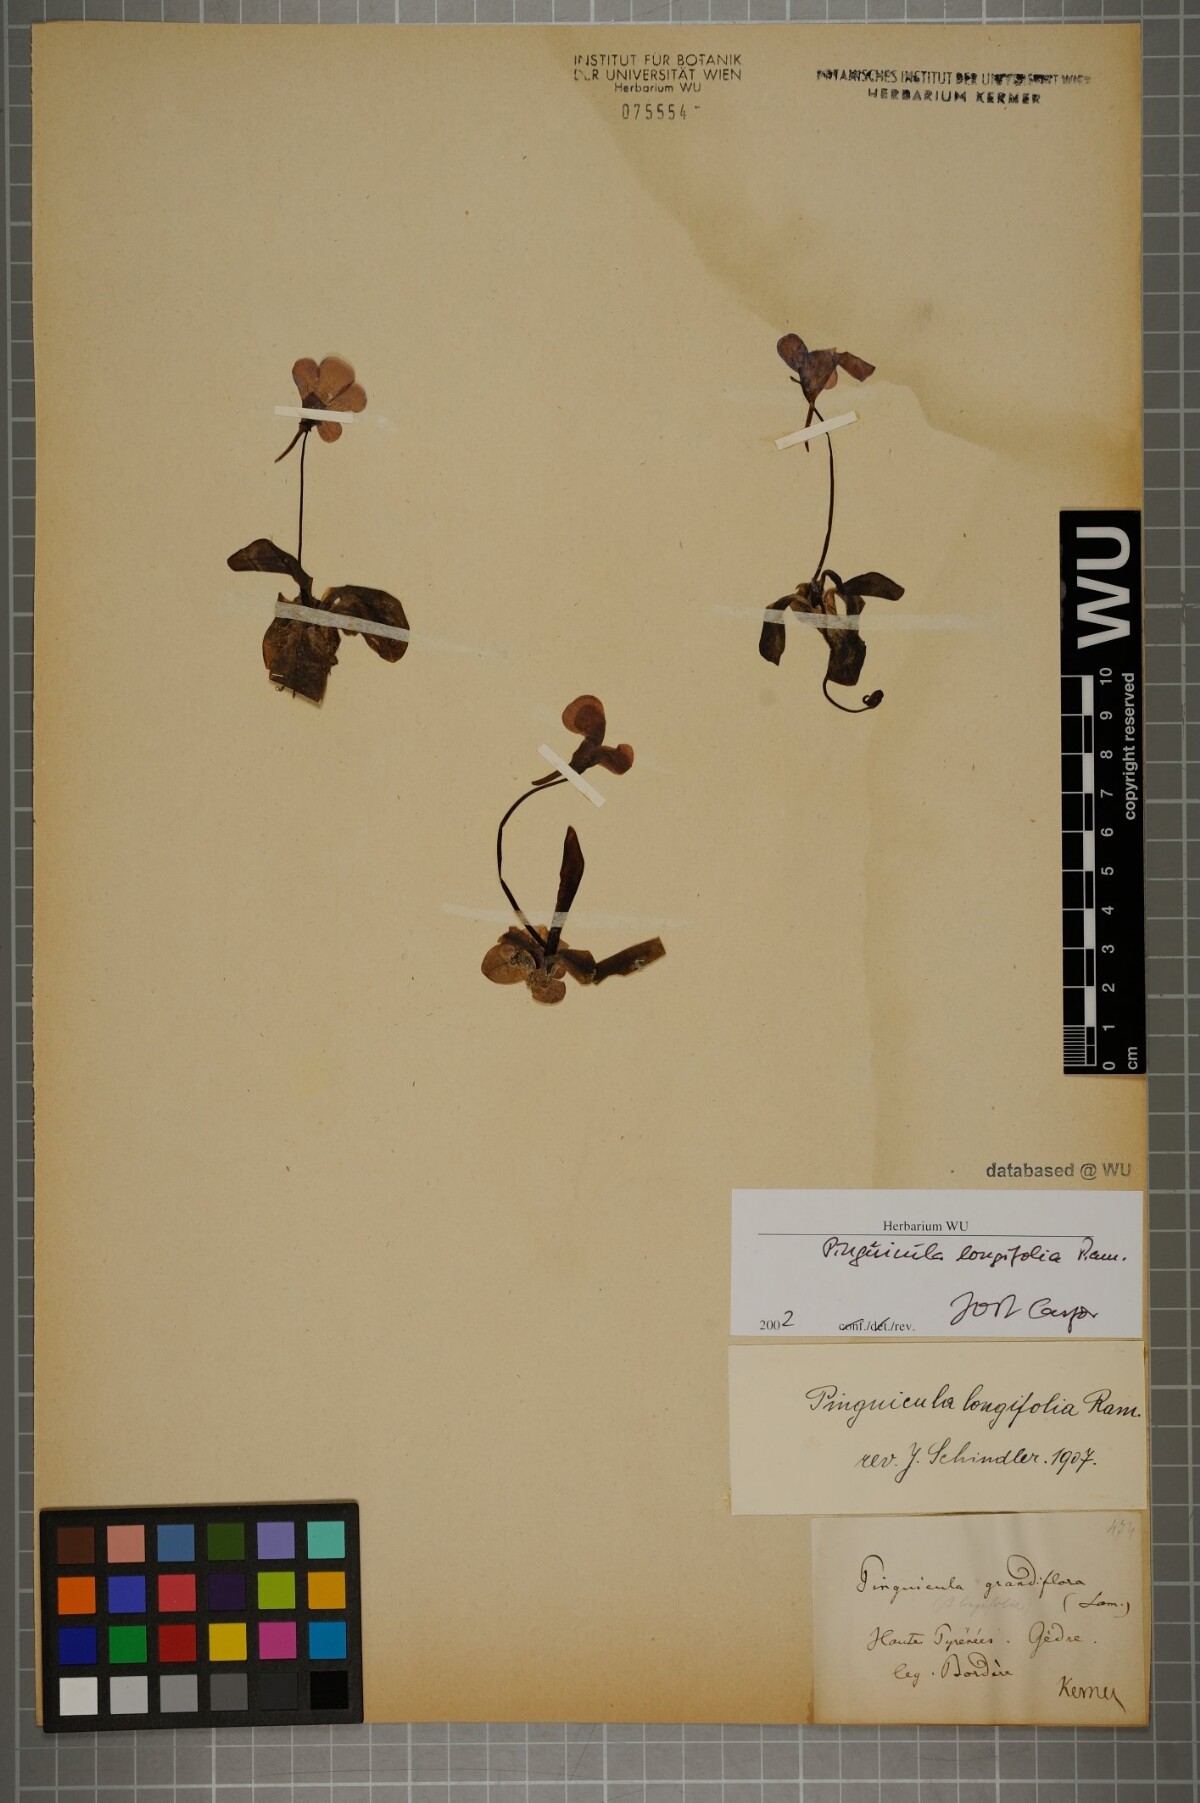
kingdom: Plantae
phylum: Tracheophyta
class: Magnoliopsida
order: Lamiales
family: Lentibulariaceae
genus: Pinguicula
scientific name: Pinguicula longifolia
